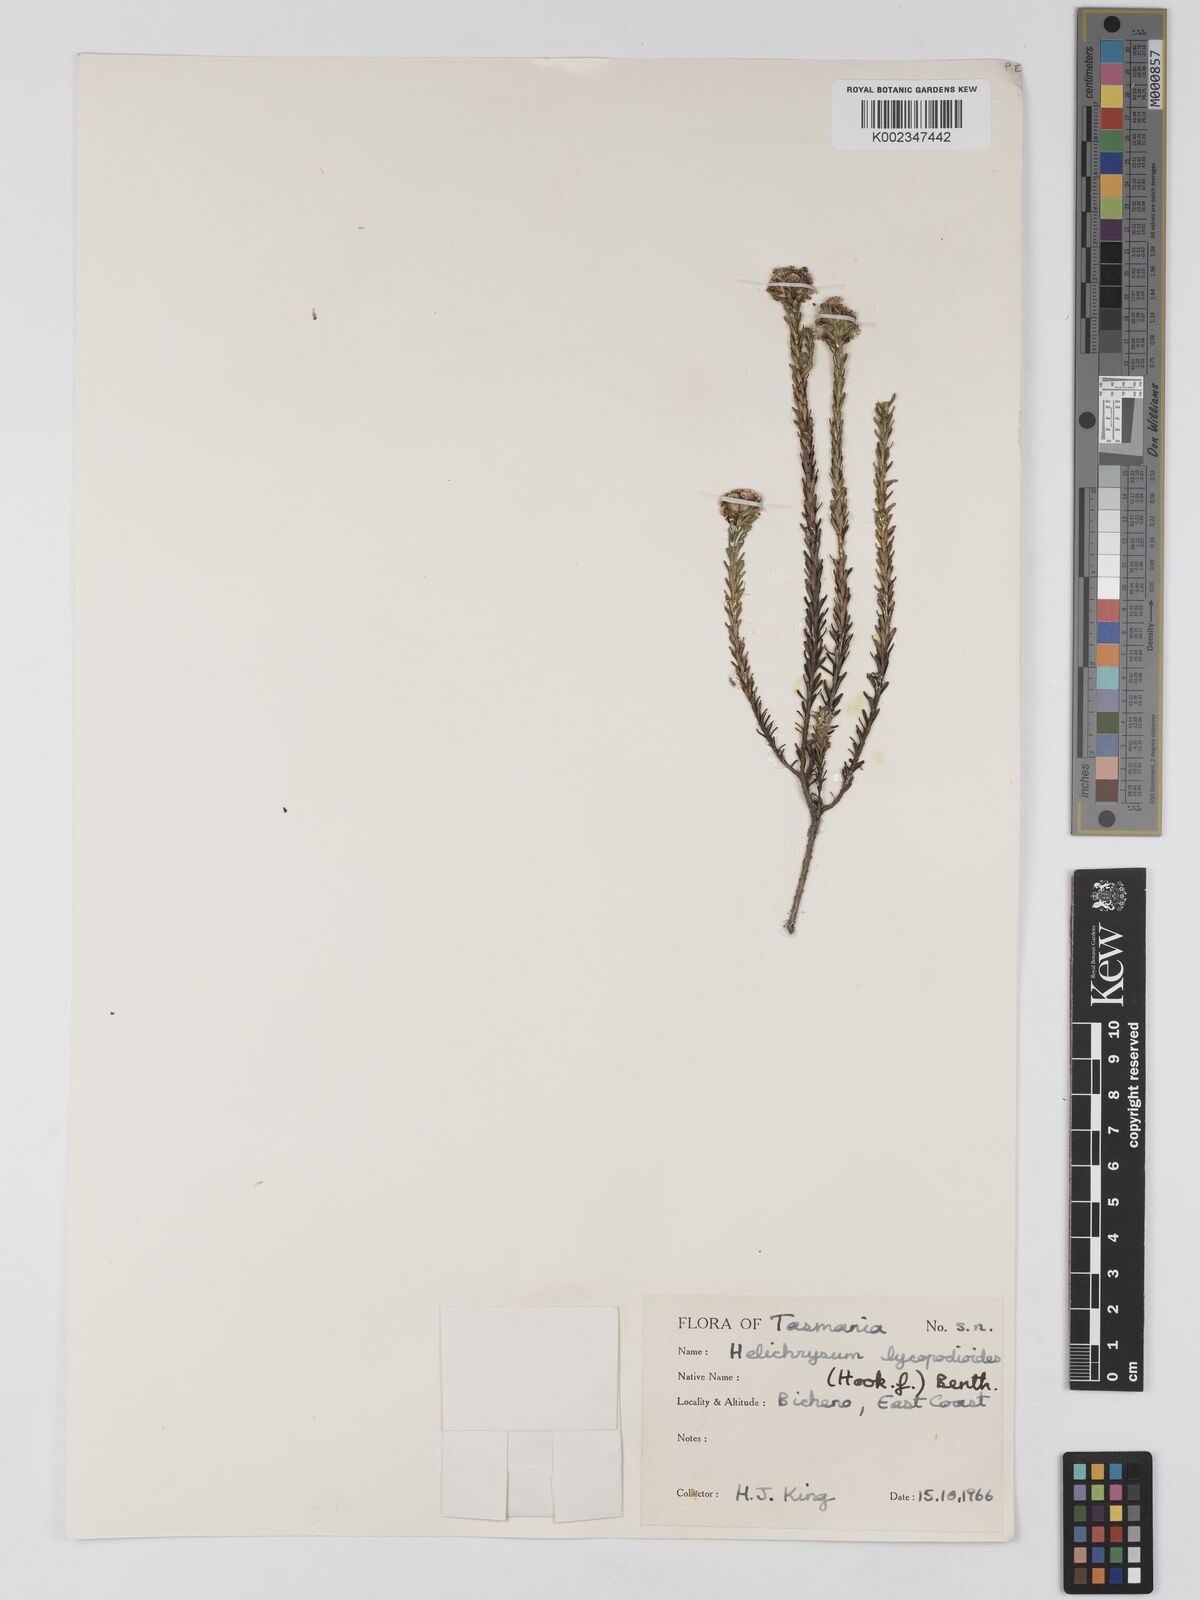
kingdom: Plantae
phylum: Tracheophyta
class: Magnoliopsida
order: Asterales
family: Asteraceae
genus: Ozothamnus
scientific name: Ozothamnus lycopodioides
